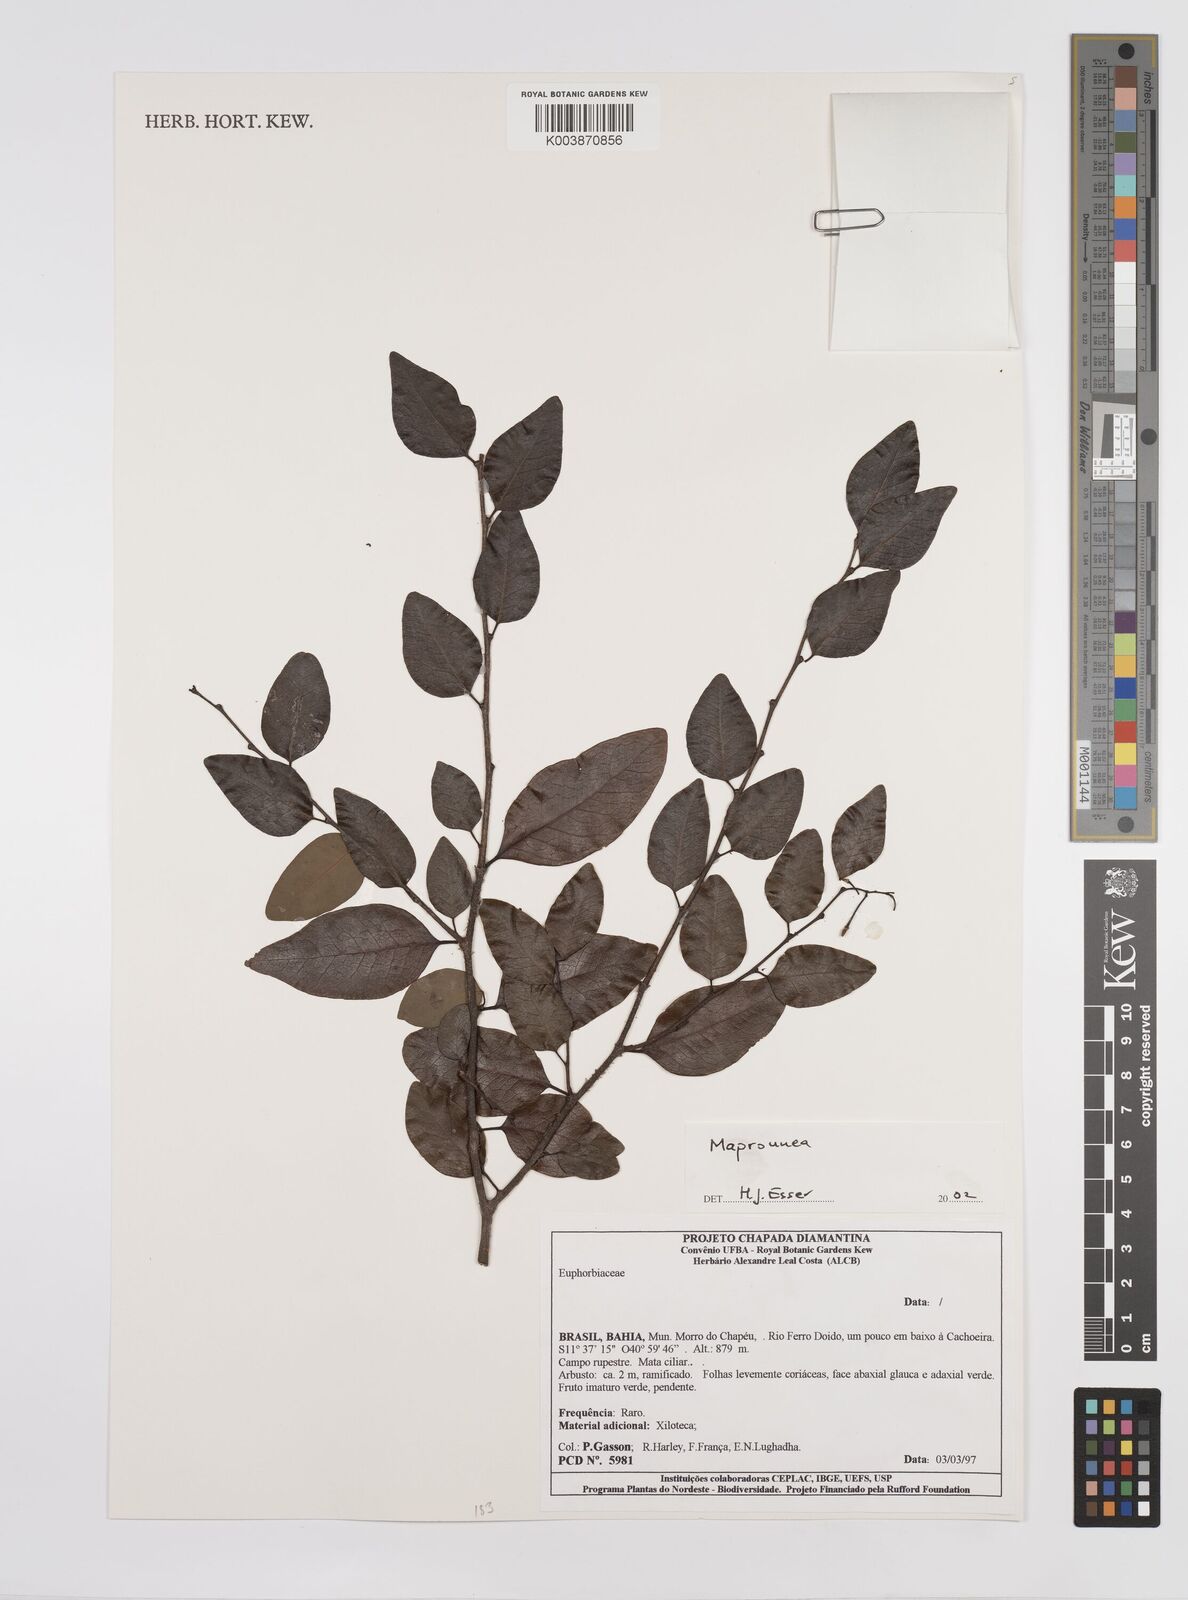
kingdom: Plantae
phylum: Tracheophyta
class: Magnoliopsida
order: Malpighiales
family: Euphorbiaceae
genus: Maprounea
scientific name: Maprounea
